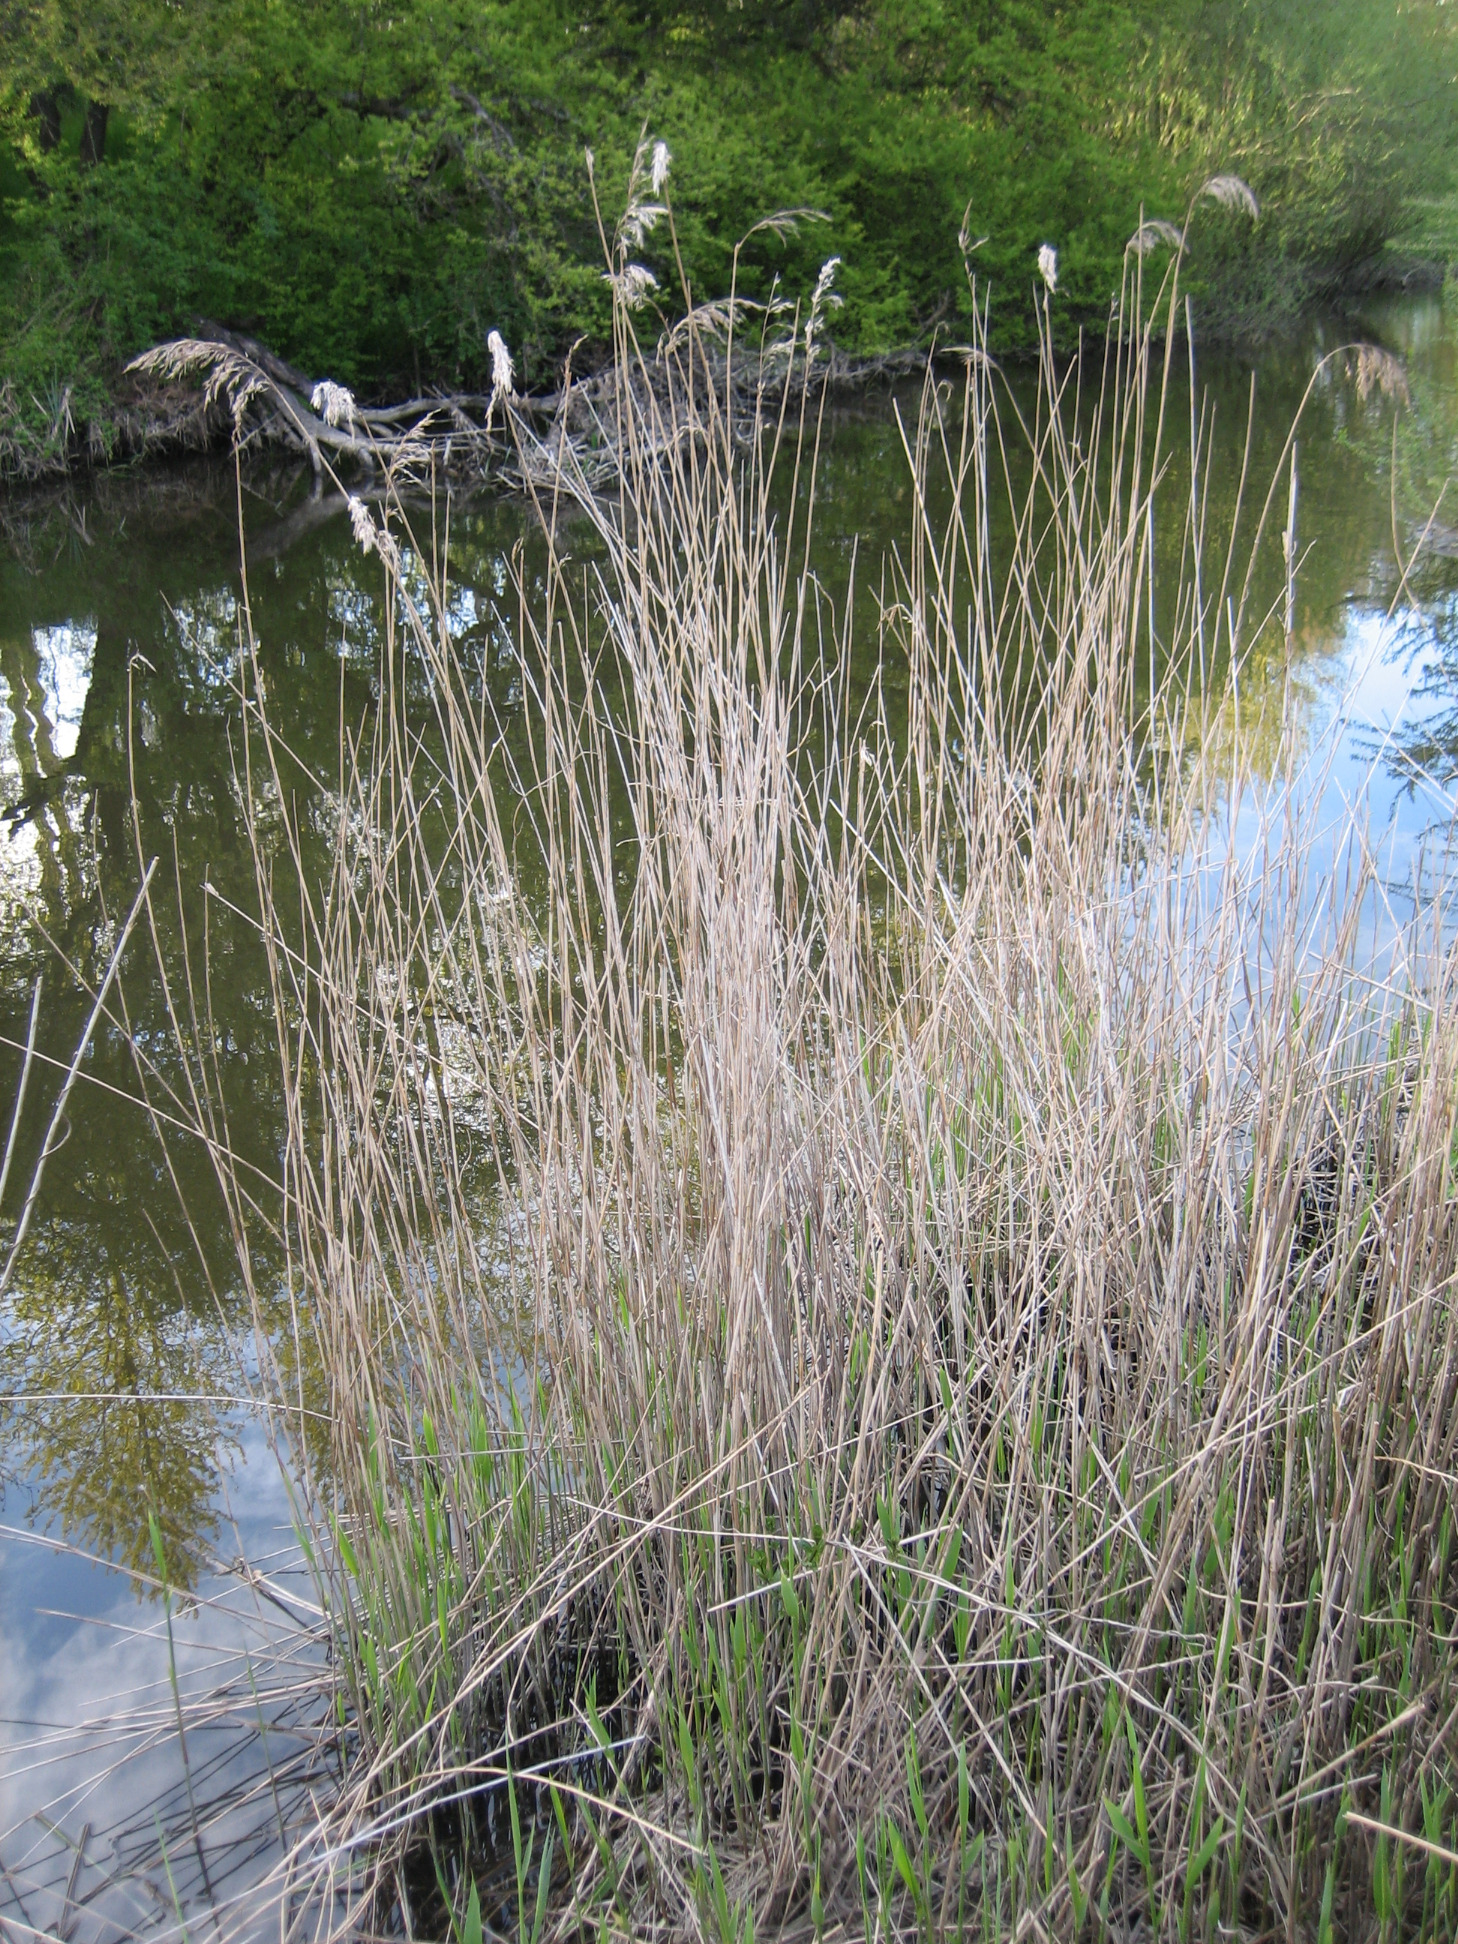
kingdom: Plantae
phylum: Tracheophyta
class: Liliopsida
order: Poales
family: Poaceae
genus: Phragmites
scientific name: Phragmites australis
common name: Tagrør
